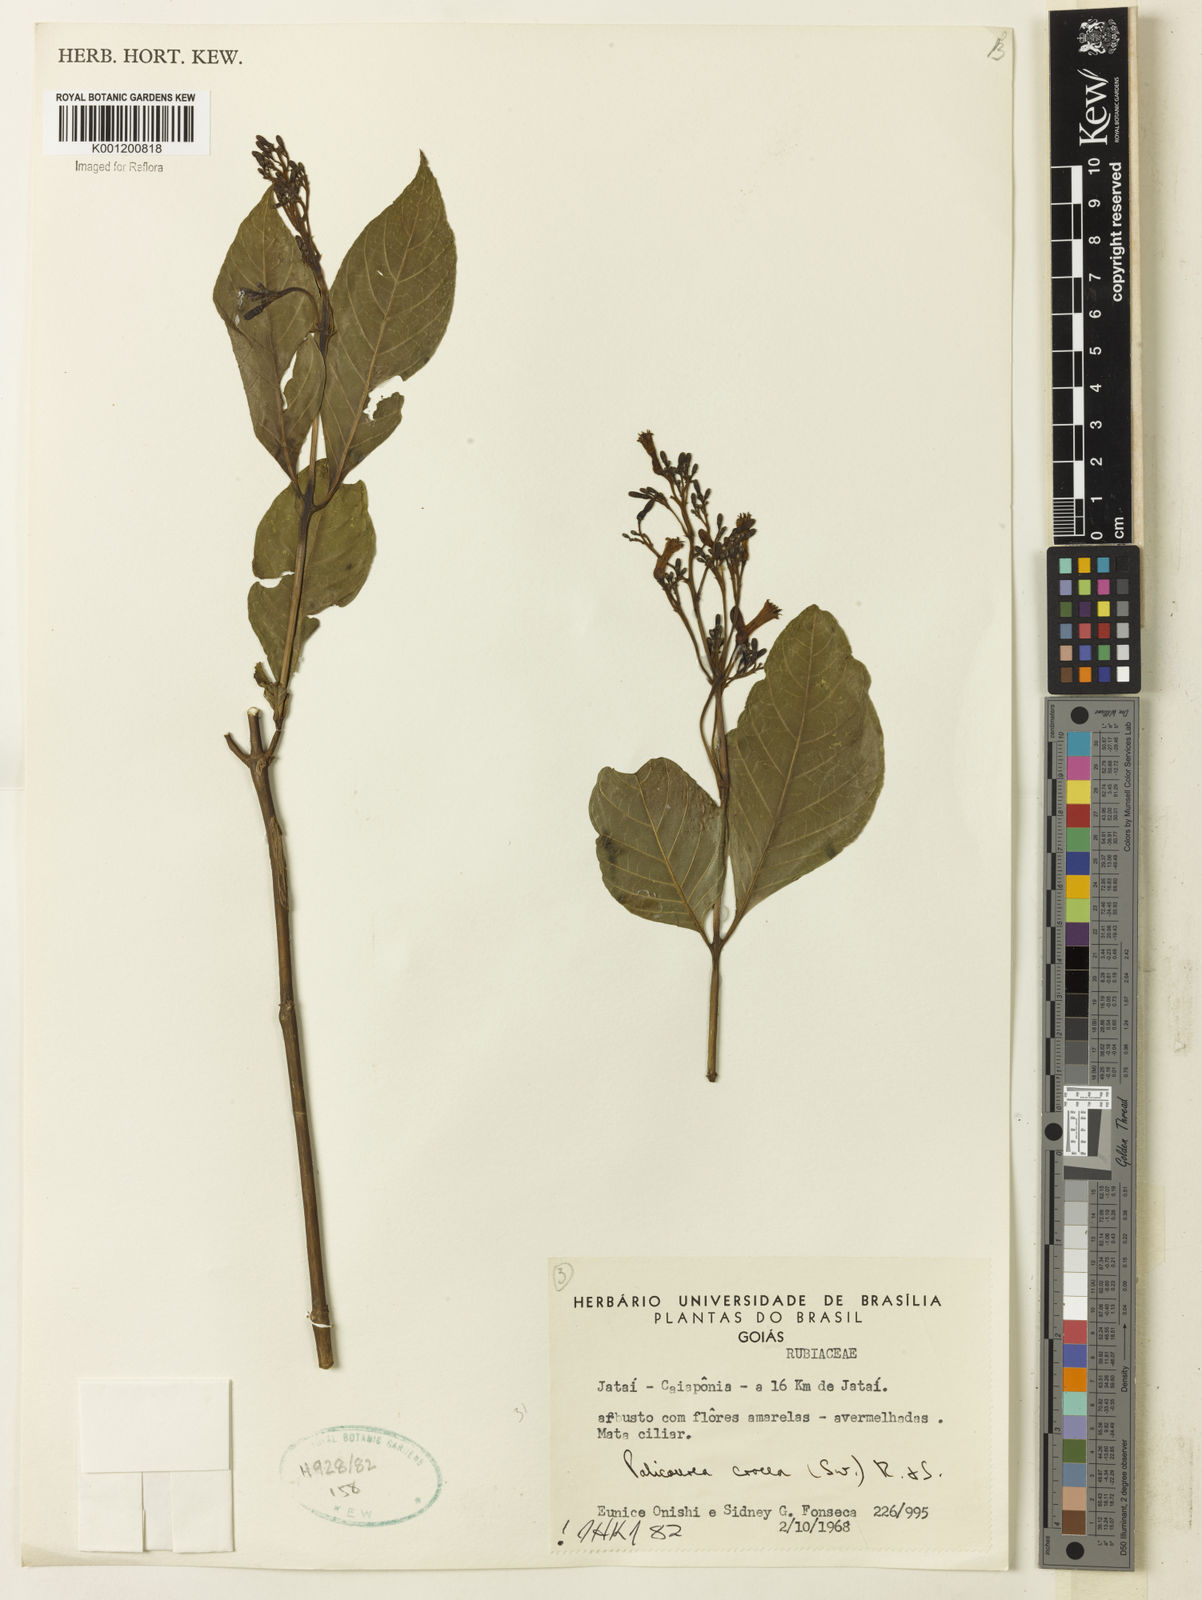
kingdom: Plantae
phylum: Tracheophyta
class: Magnoliopsida
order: Gentianales
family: Rubiaceae
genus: Palicourea
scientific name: Palicourea crocea
